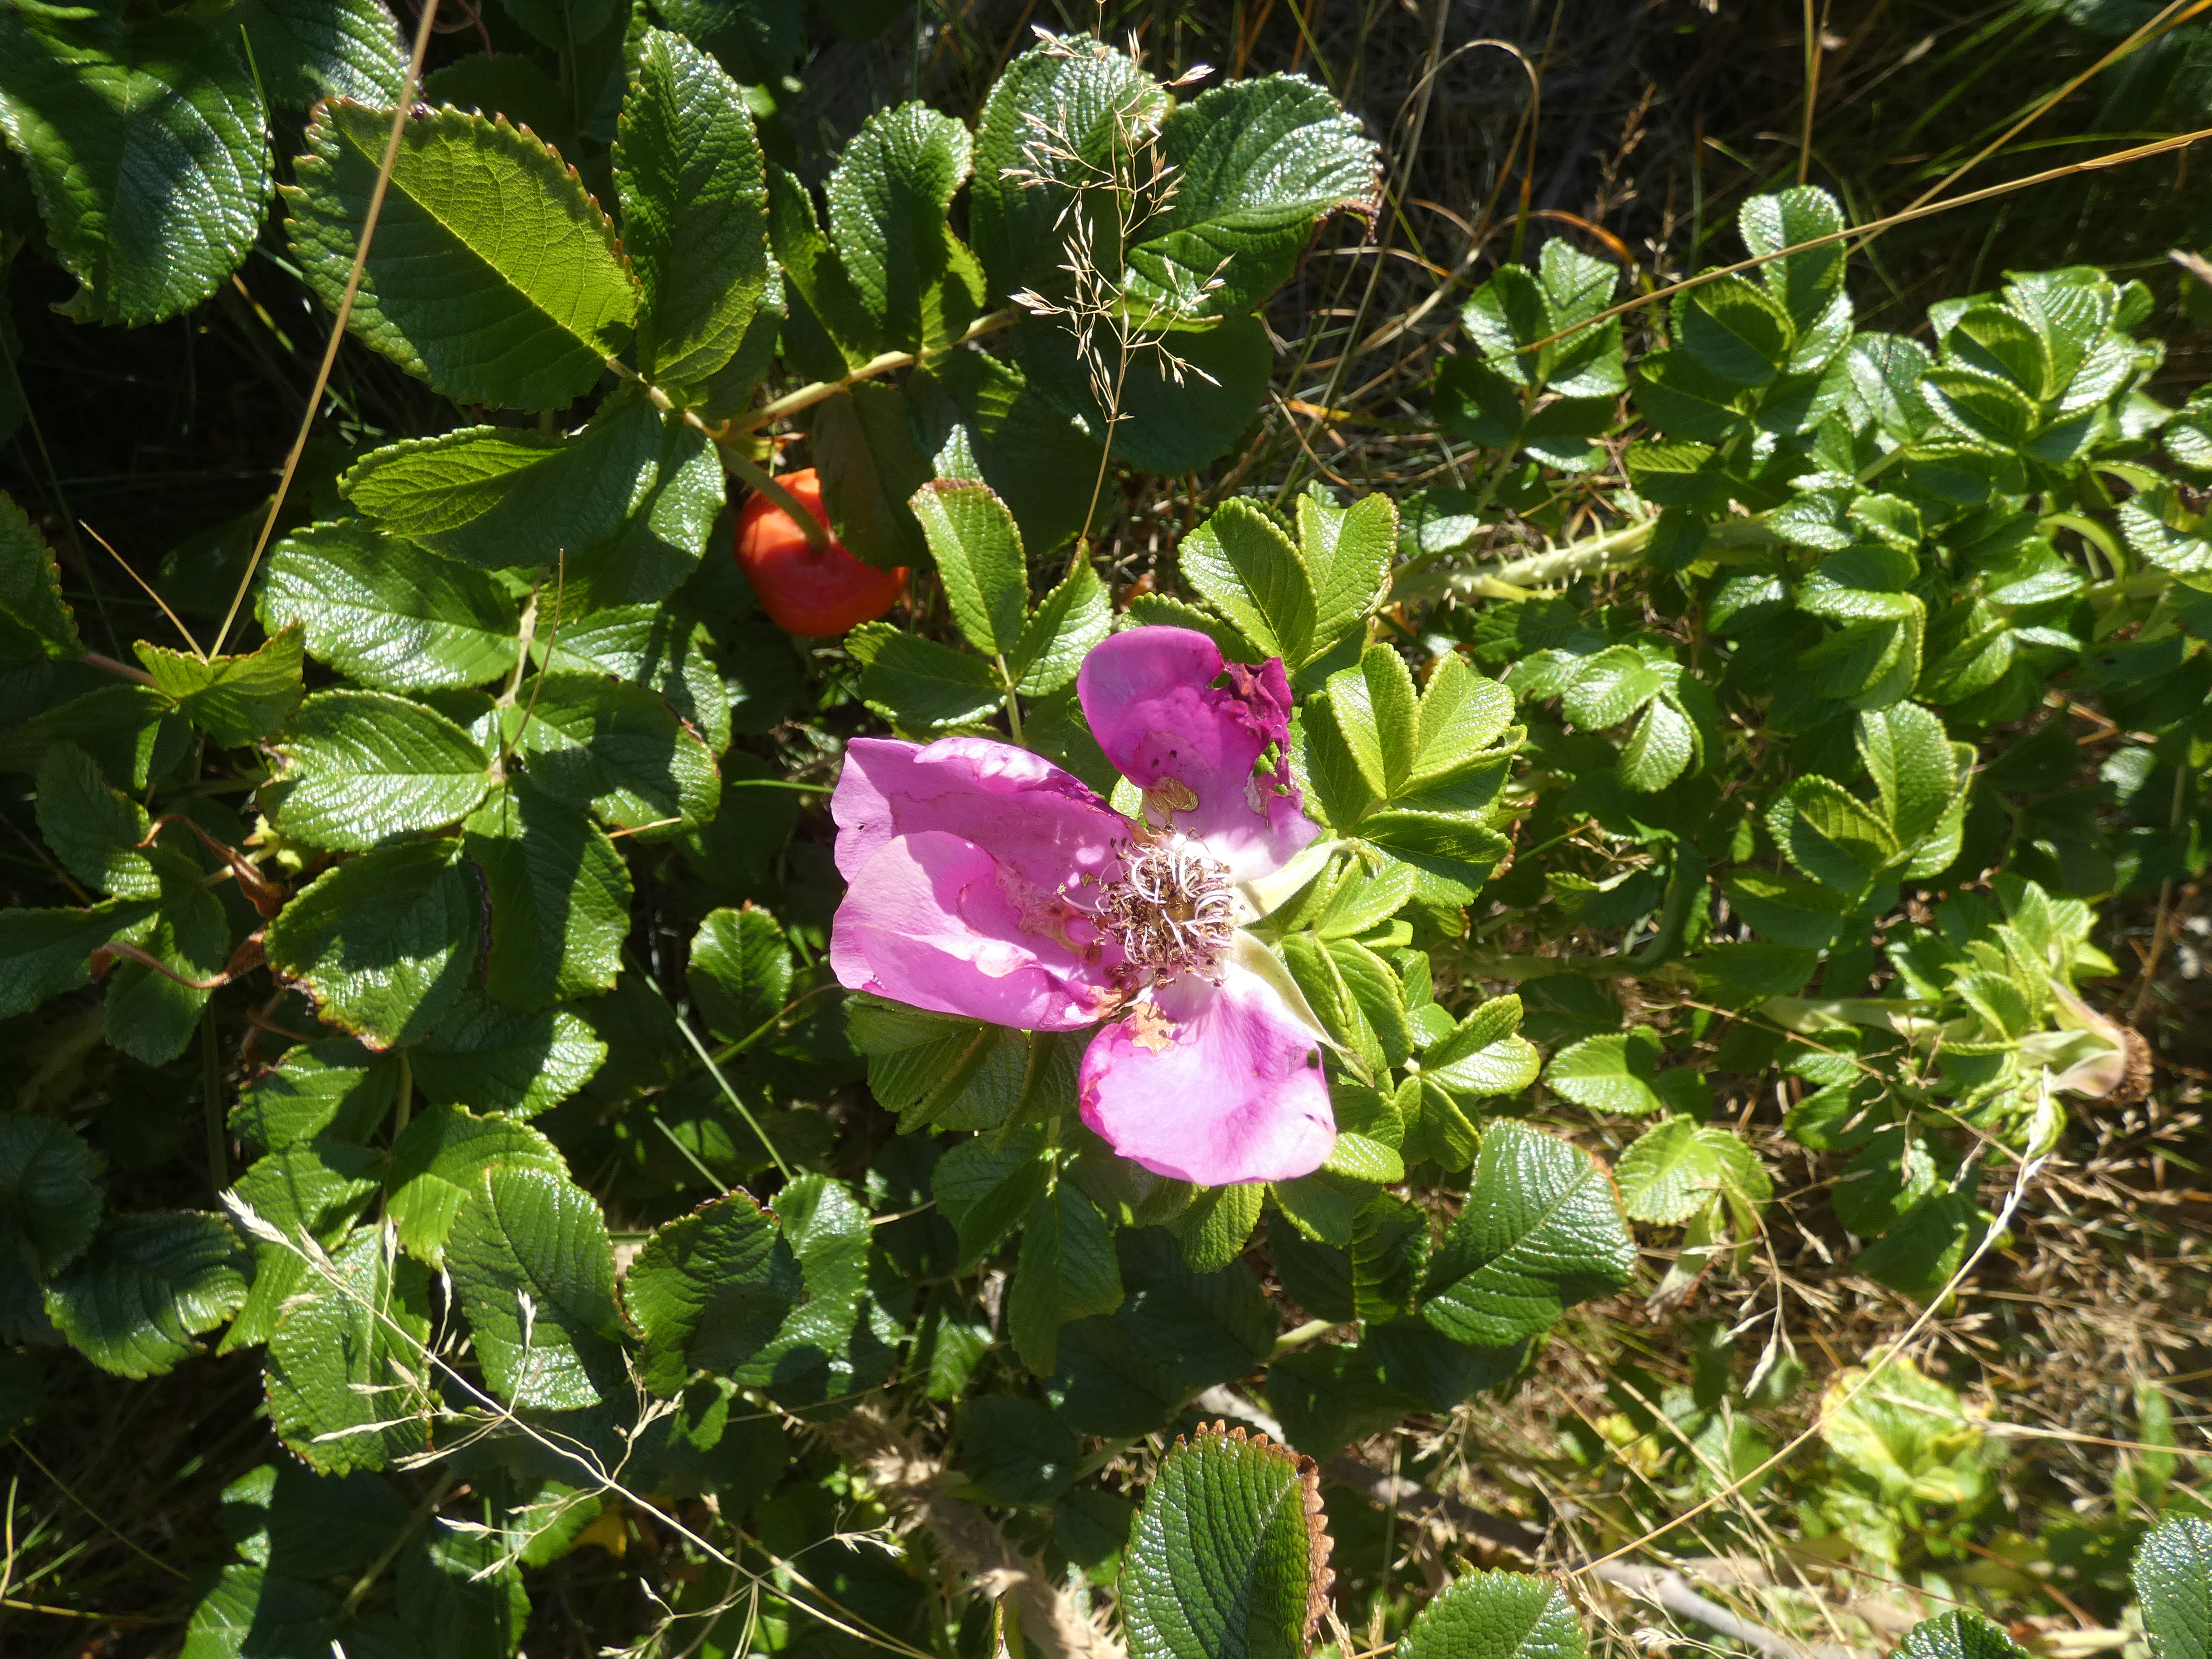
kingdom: Plantae
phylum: Tracheophyta
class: Magnoliopsida
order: Rosales
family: Rosaceae
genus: Rosa
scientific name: Rosa rugosa
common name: Rynket rose
